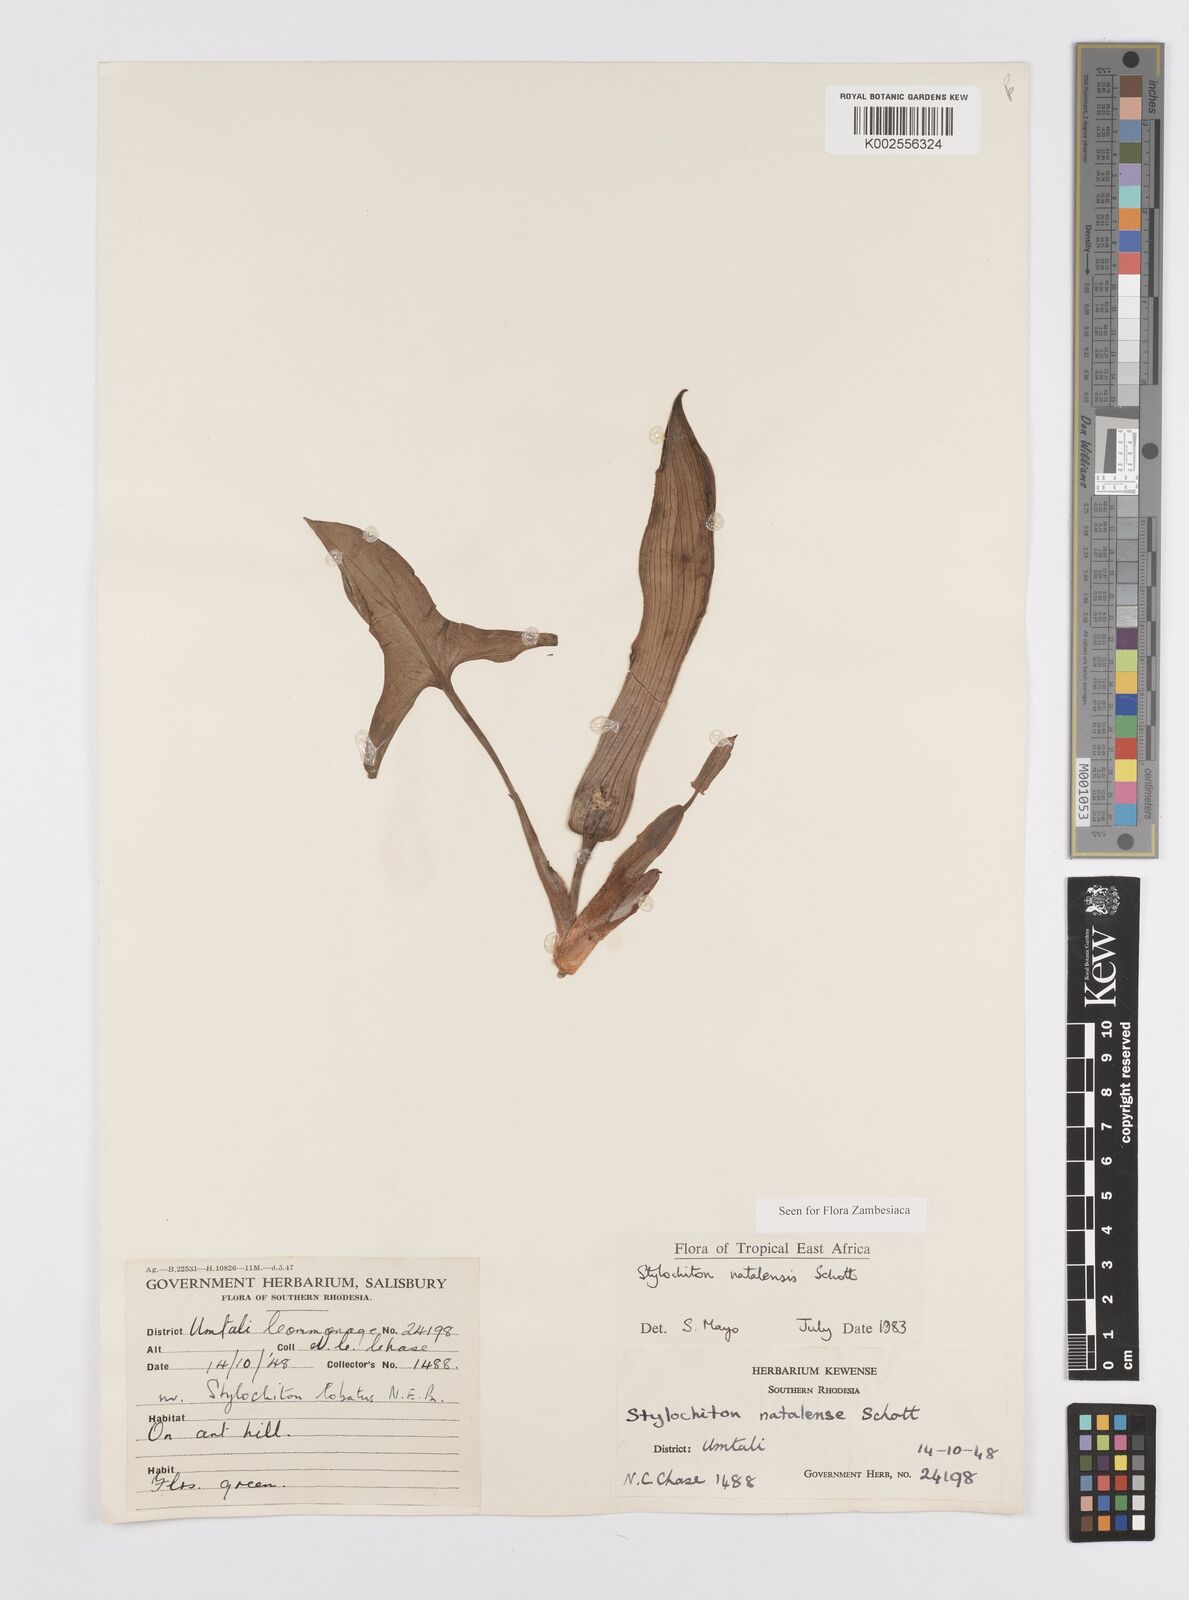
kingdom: Plantae
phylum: Tracheophyta
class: Liliopsida
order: Alismatales
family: Araceae
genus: Stylochaeton
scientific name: Stylochaeton natalense
